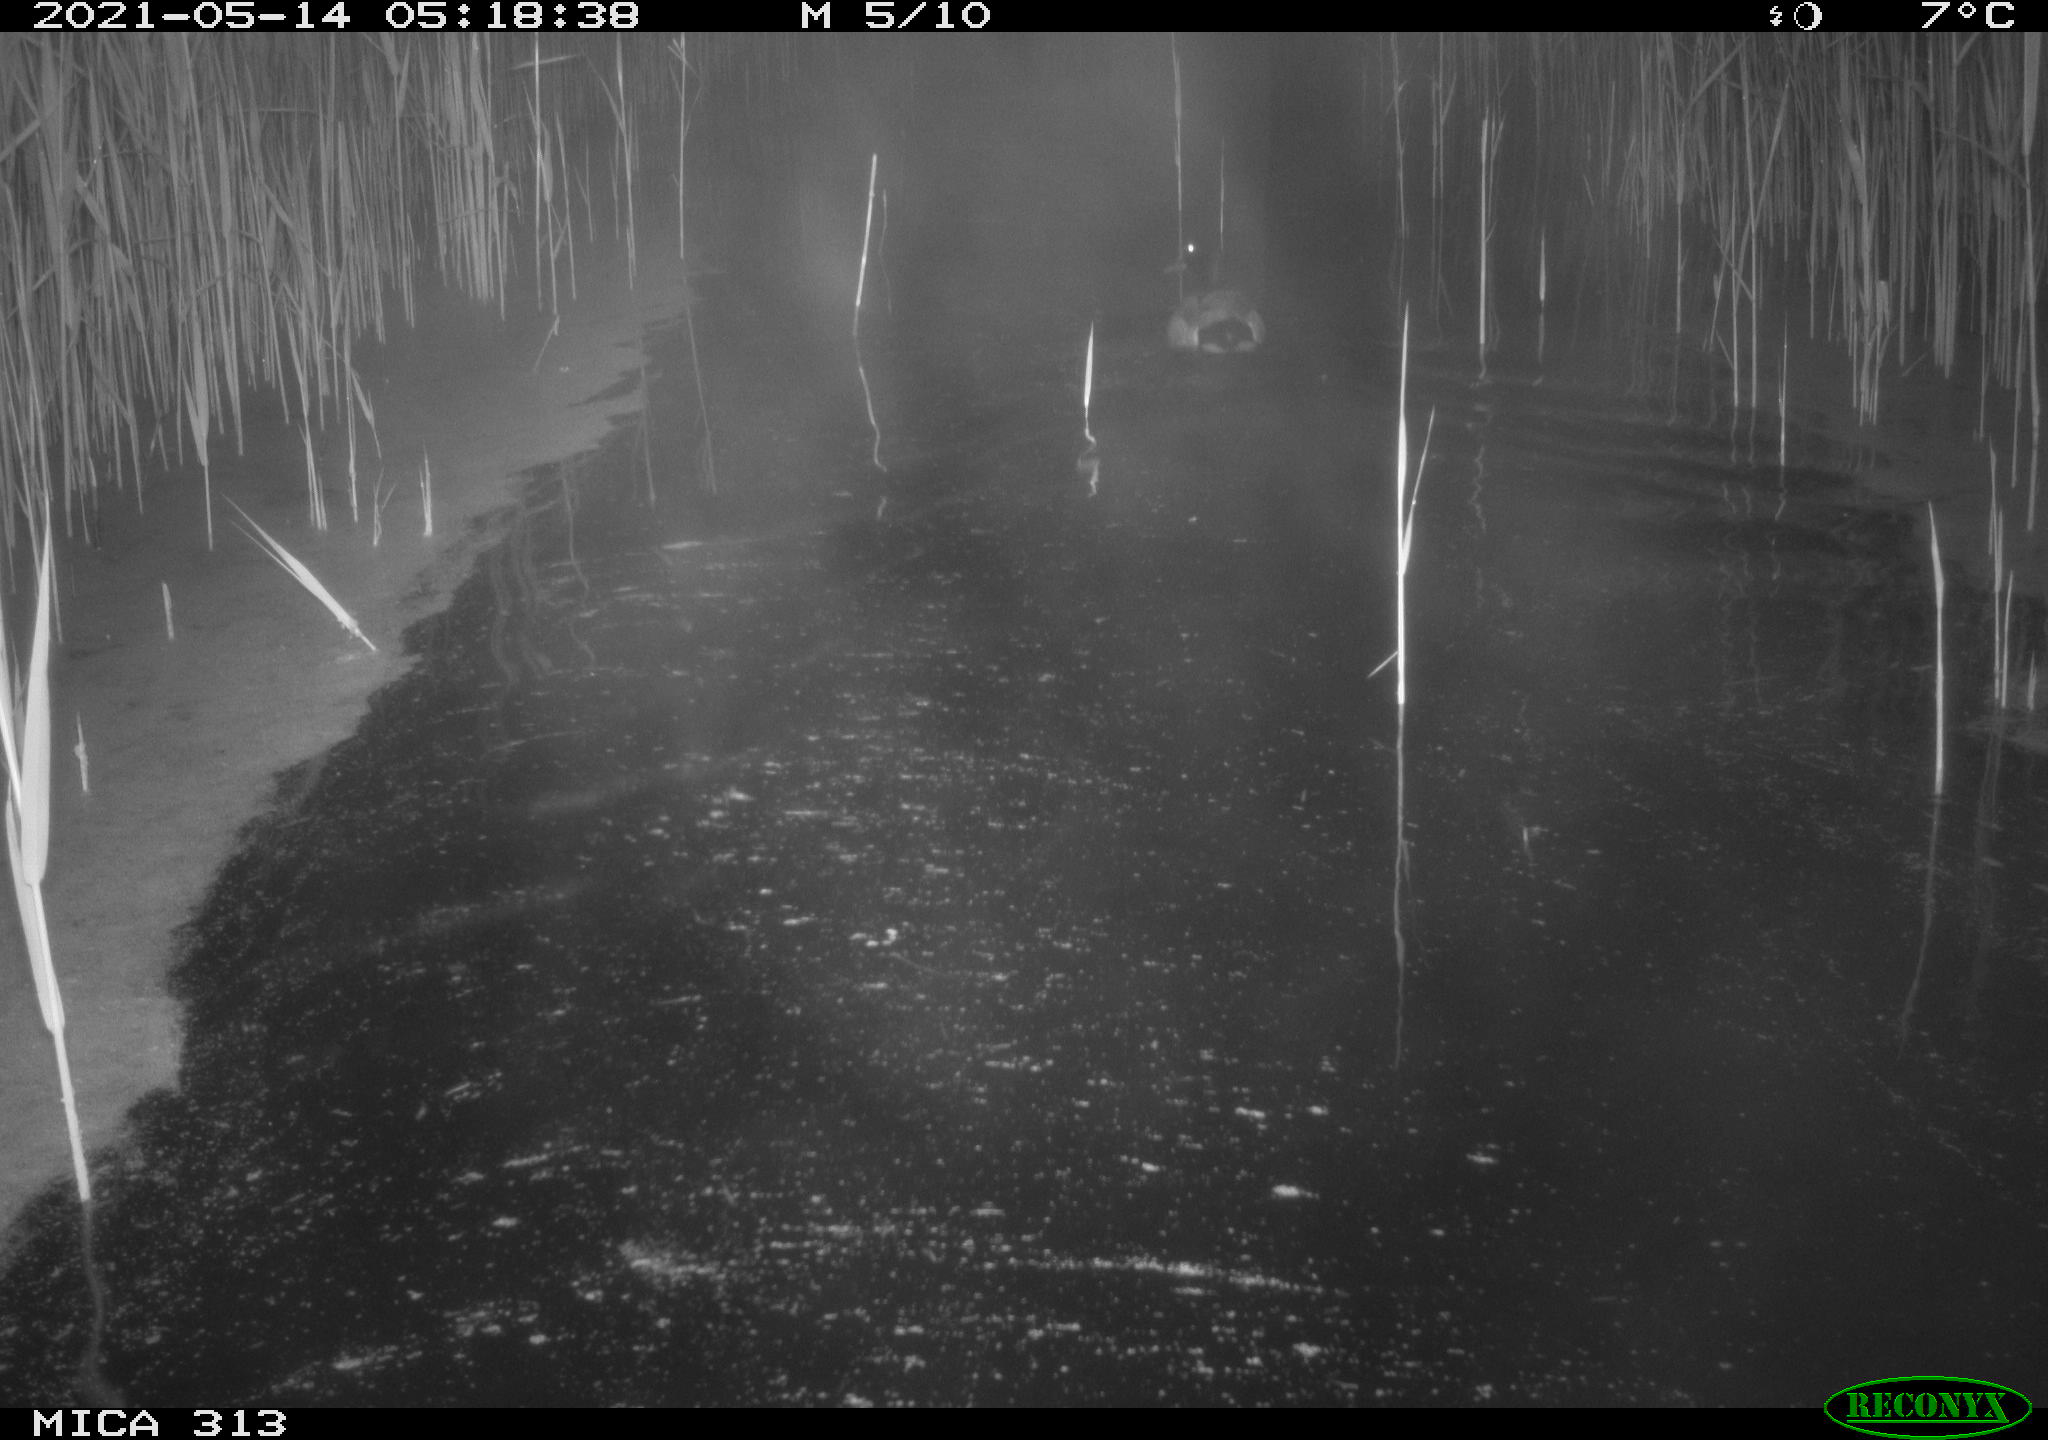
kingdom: Animalia
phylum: Chordata
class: Aves
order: Anseriformes
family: Anatidae
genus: Anas
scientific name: Anas platyrhynchos
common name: Mallard
